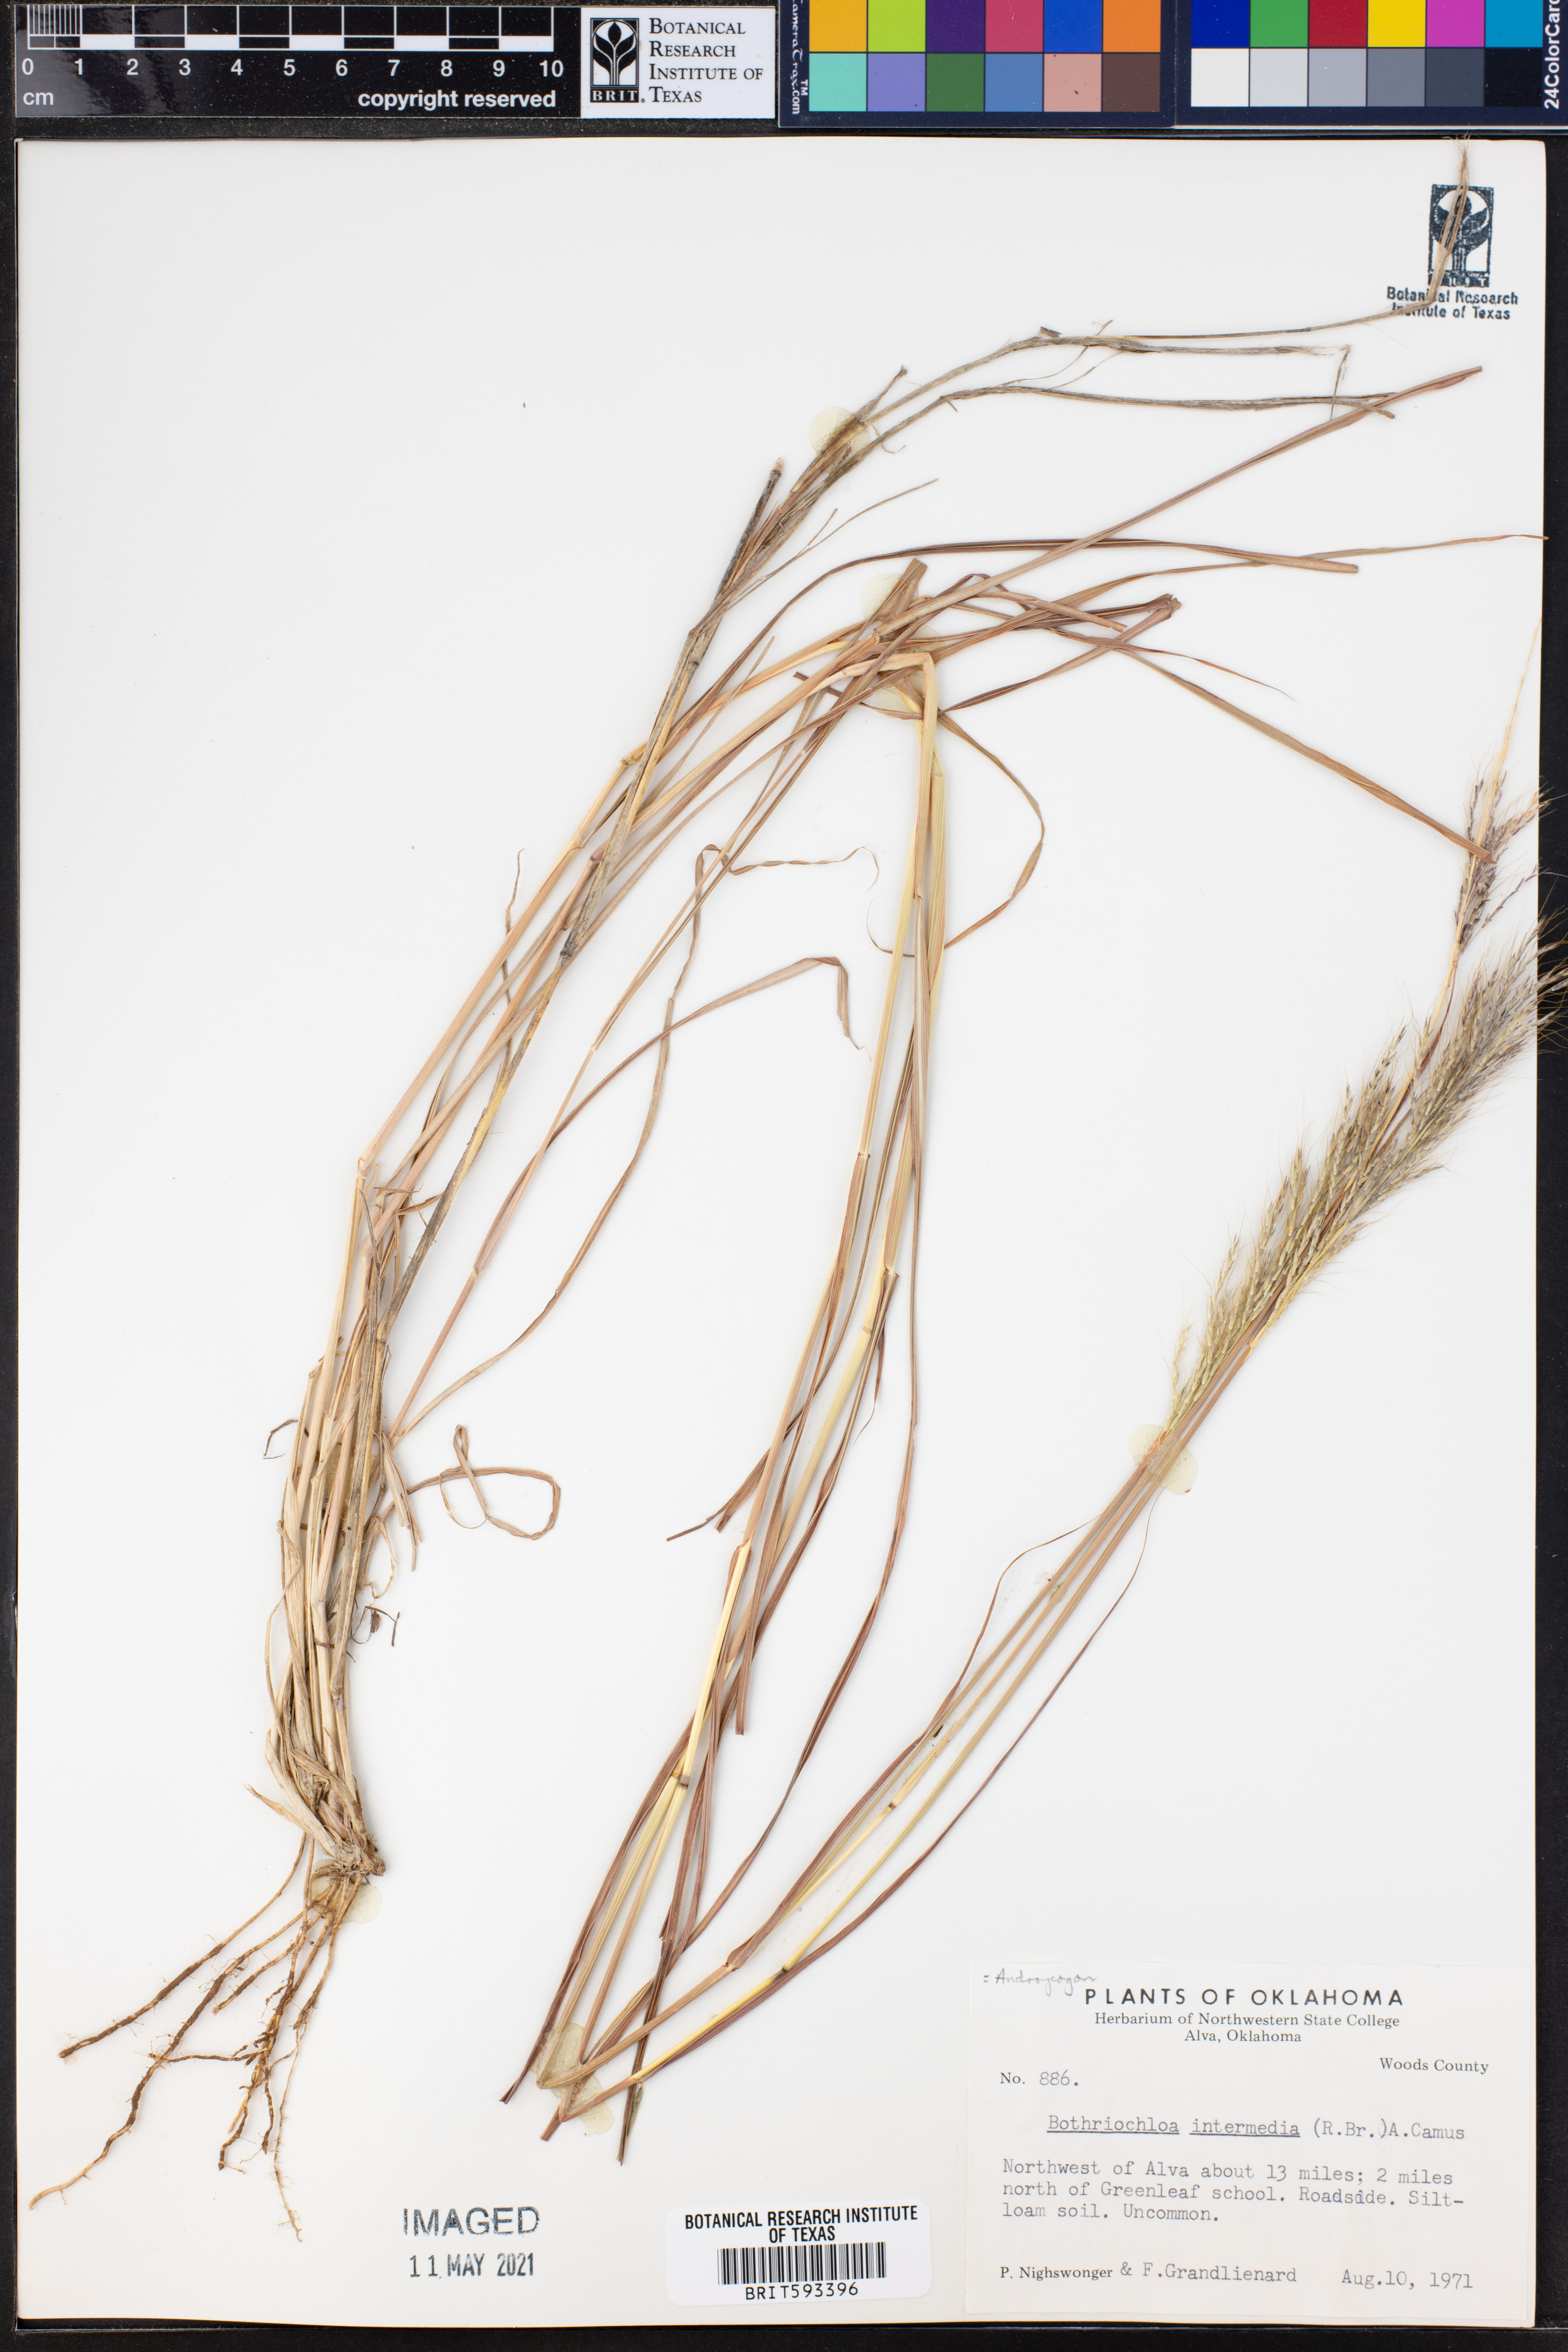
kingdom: Plantae
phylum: Tracheophyta
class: Liliopsida
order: Poales
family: Poaceae
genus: Bothriochloa
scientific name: Bothriochloa bladhii
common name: Caucasian bluestem
